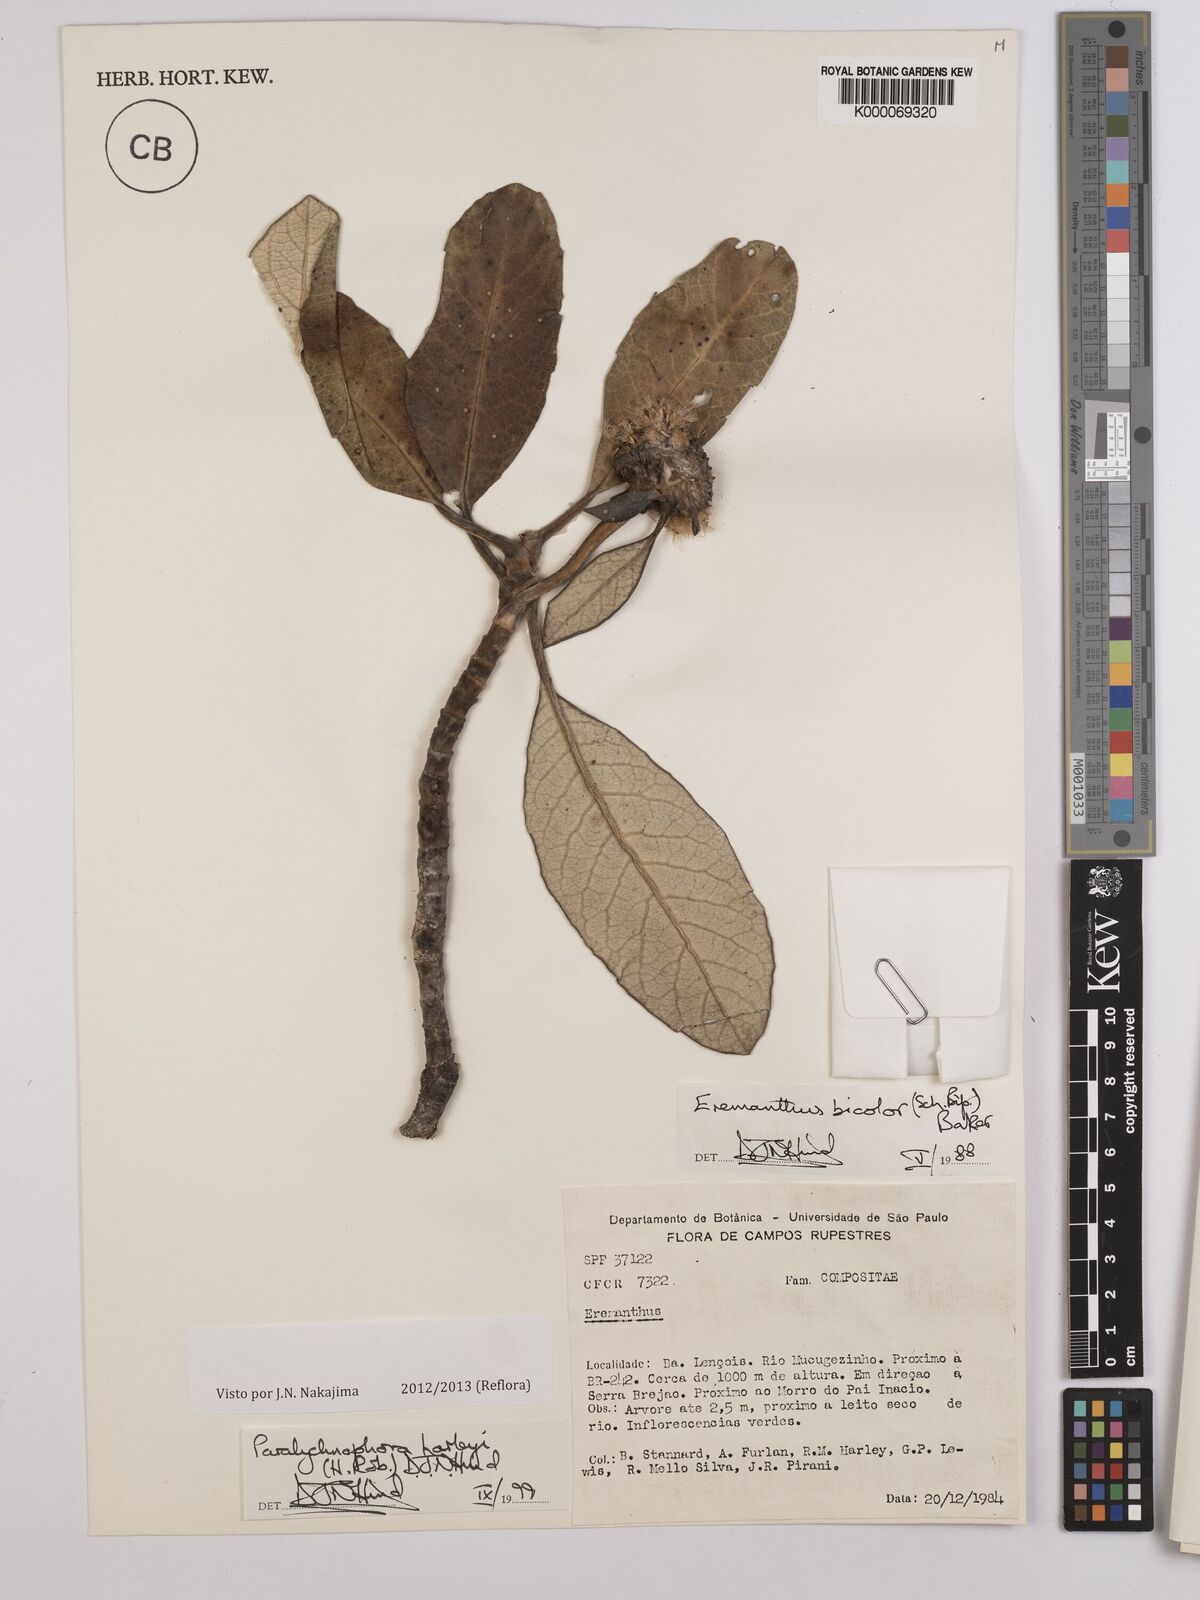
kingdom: Plantae
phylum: Tracheophyta
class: Magnoliopsida
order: Asterales
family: Asteraceae
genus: Paralychnophora
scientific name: Paralychnophora harleyi
